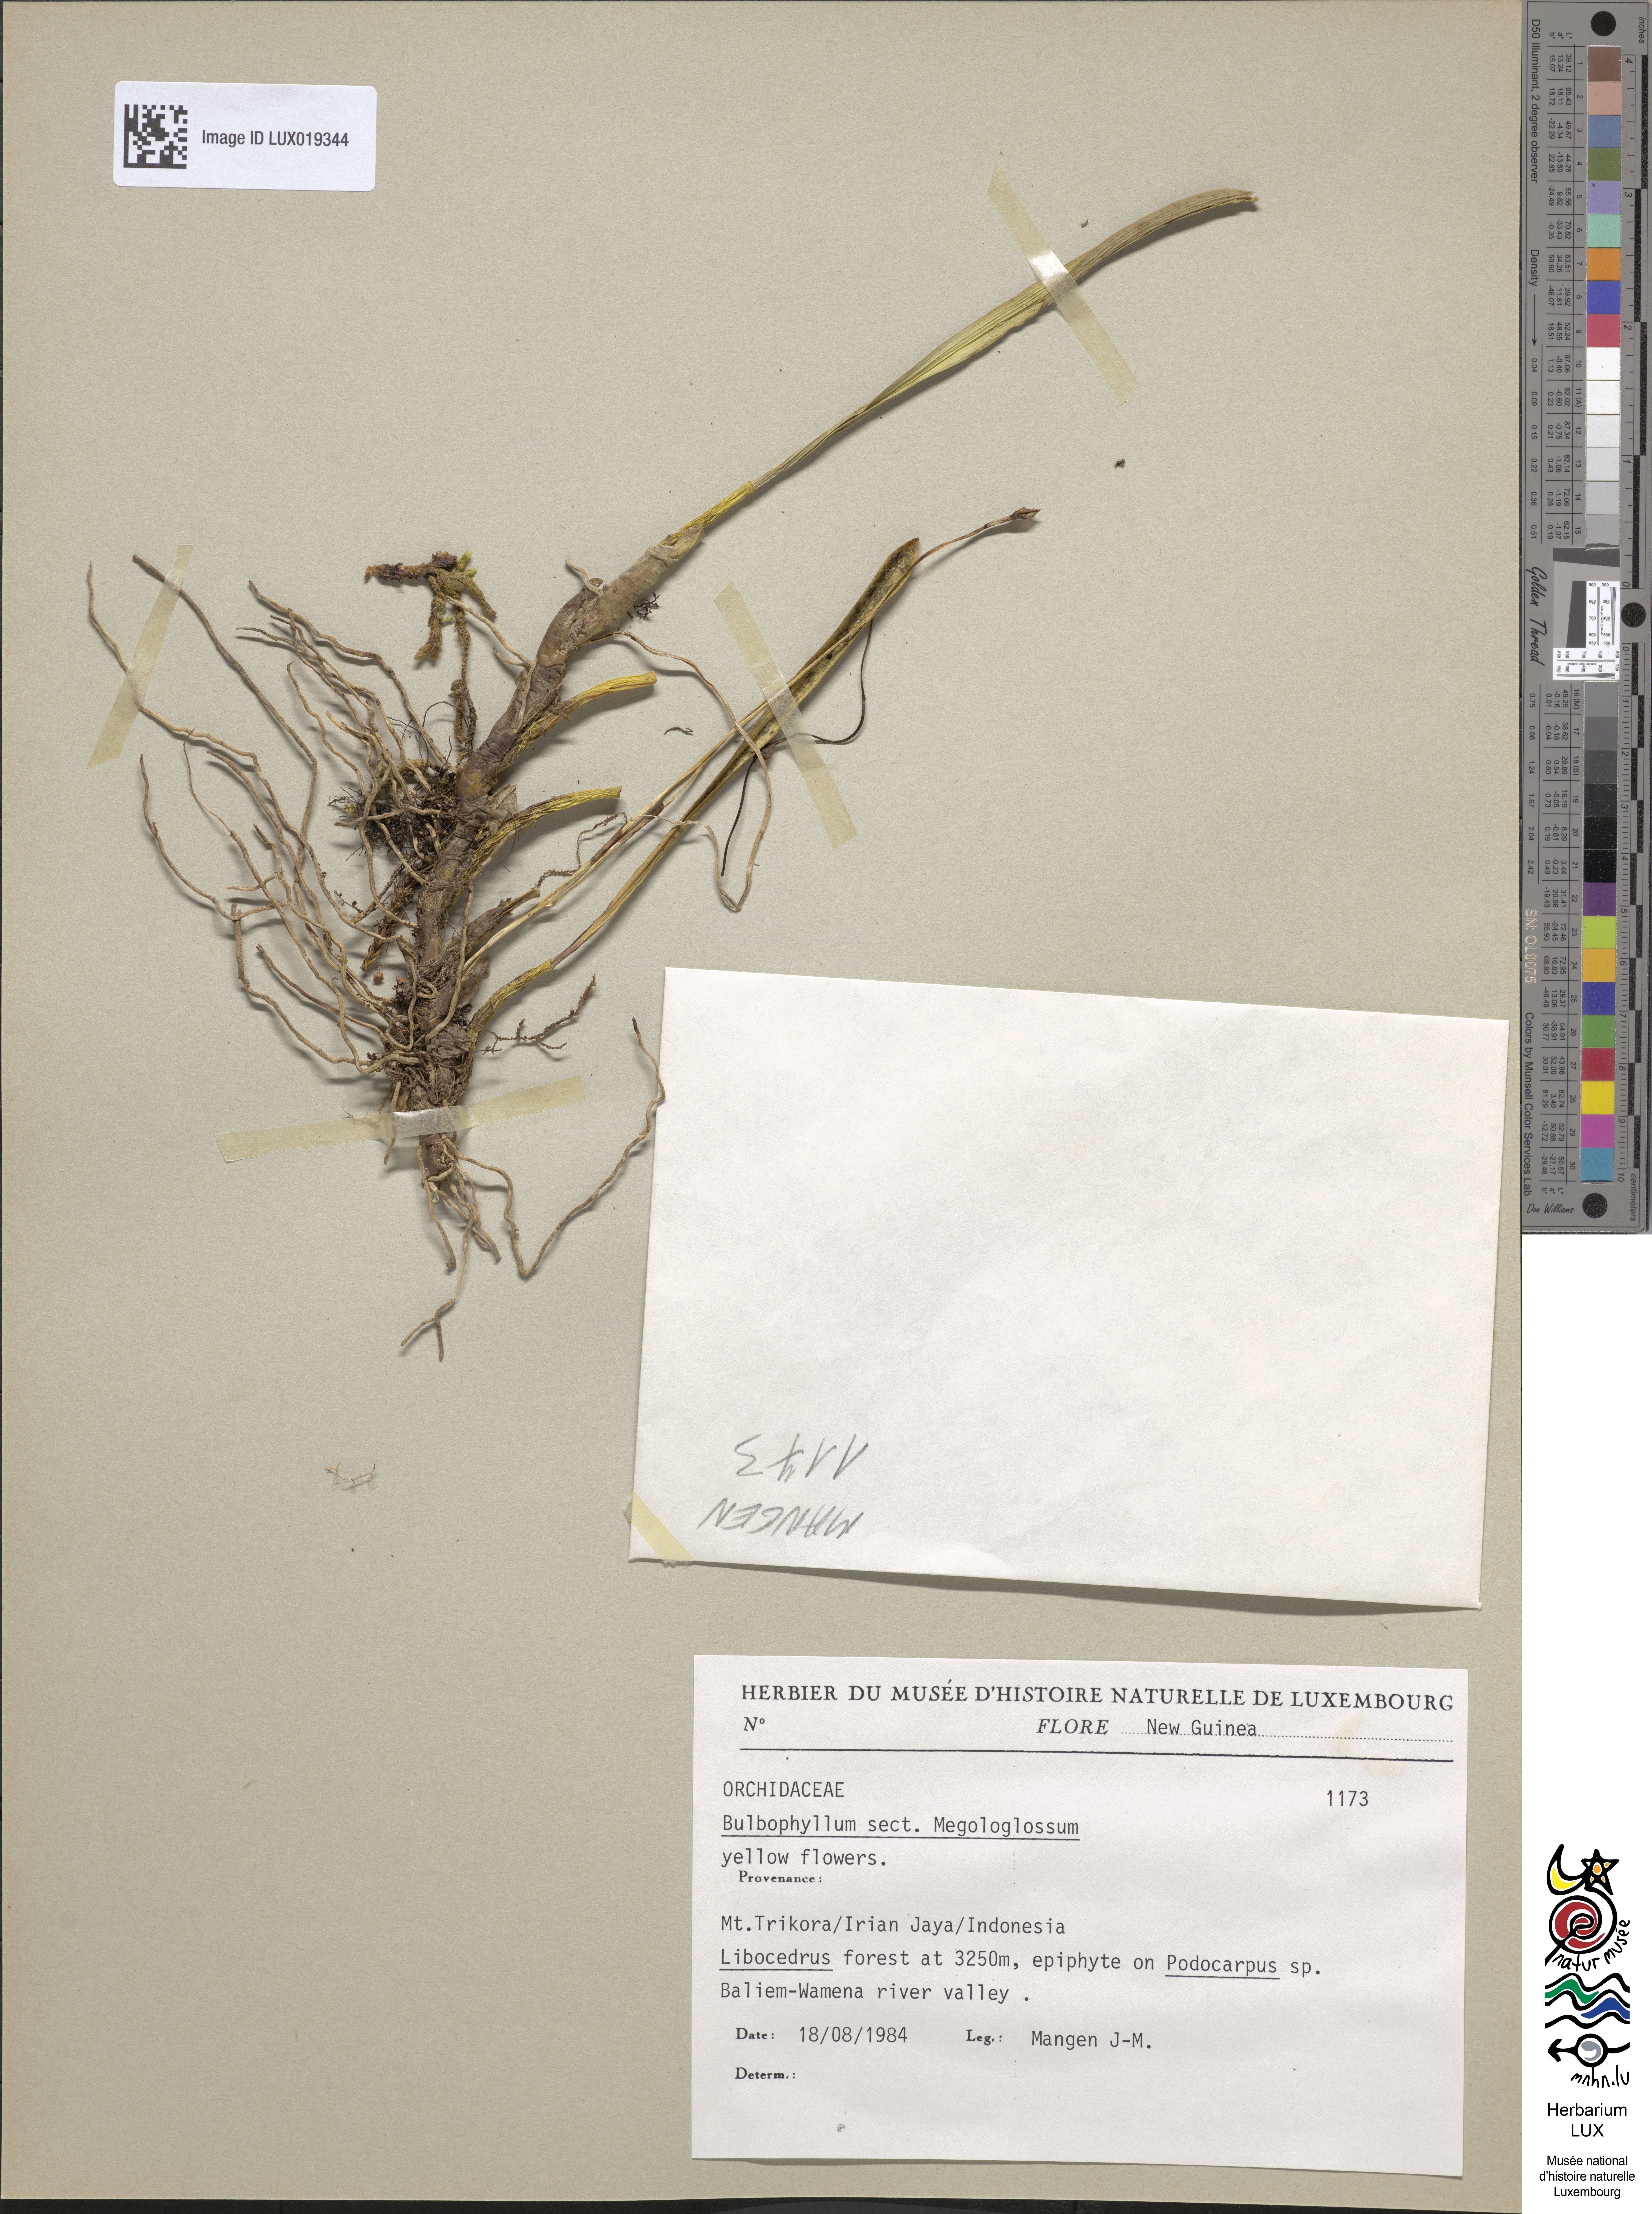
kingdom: Plantae
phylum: Tracheophyta
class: Liliopsida
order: Asparagales
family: Orchidaceae
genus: Bulbophyllum
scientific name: Bulbophyllum
